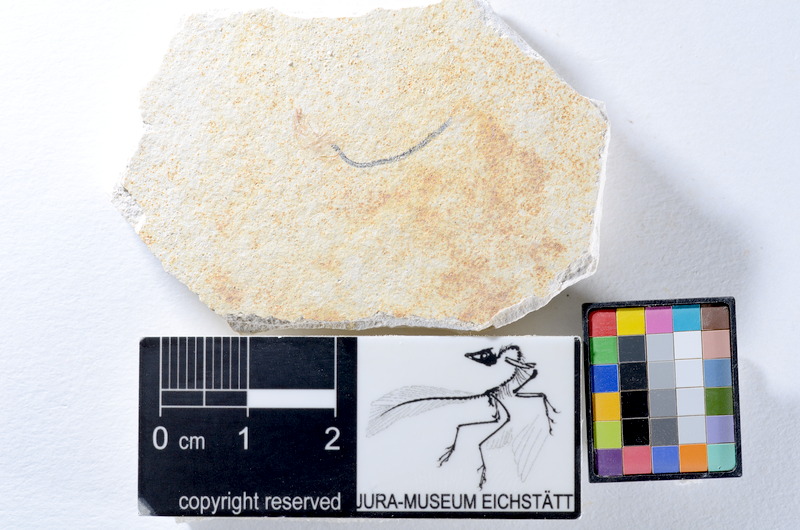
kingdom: Animalia
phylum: Chordata
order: Salmoniformes
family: Orthogonikleithridae
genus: Orthogonikleithrus
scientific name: Orthogonikleithrus hoelli
